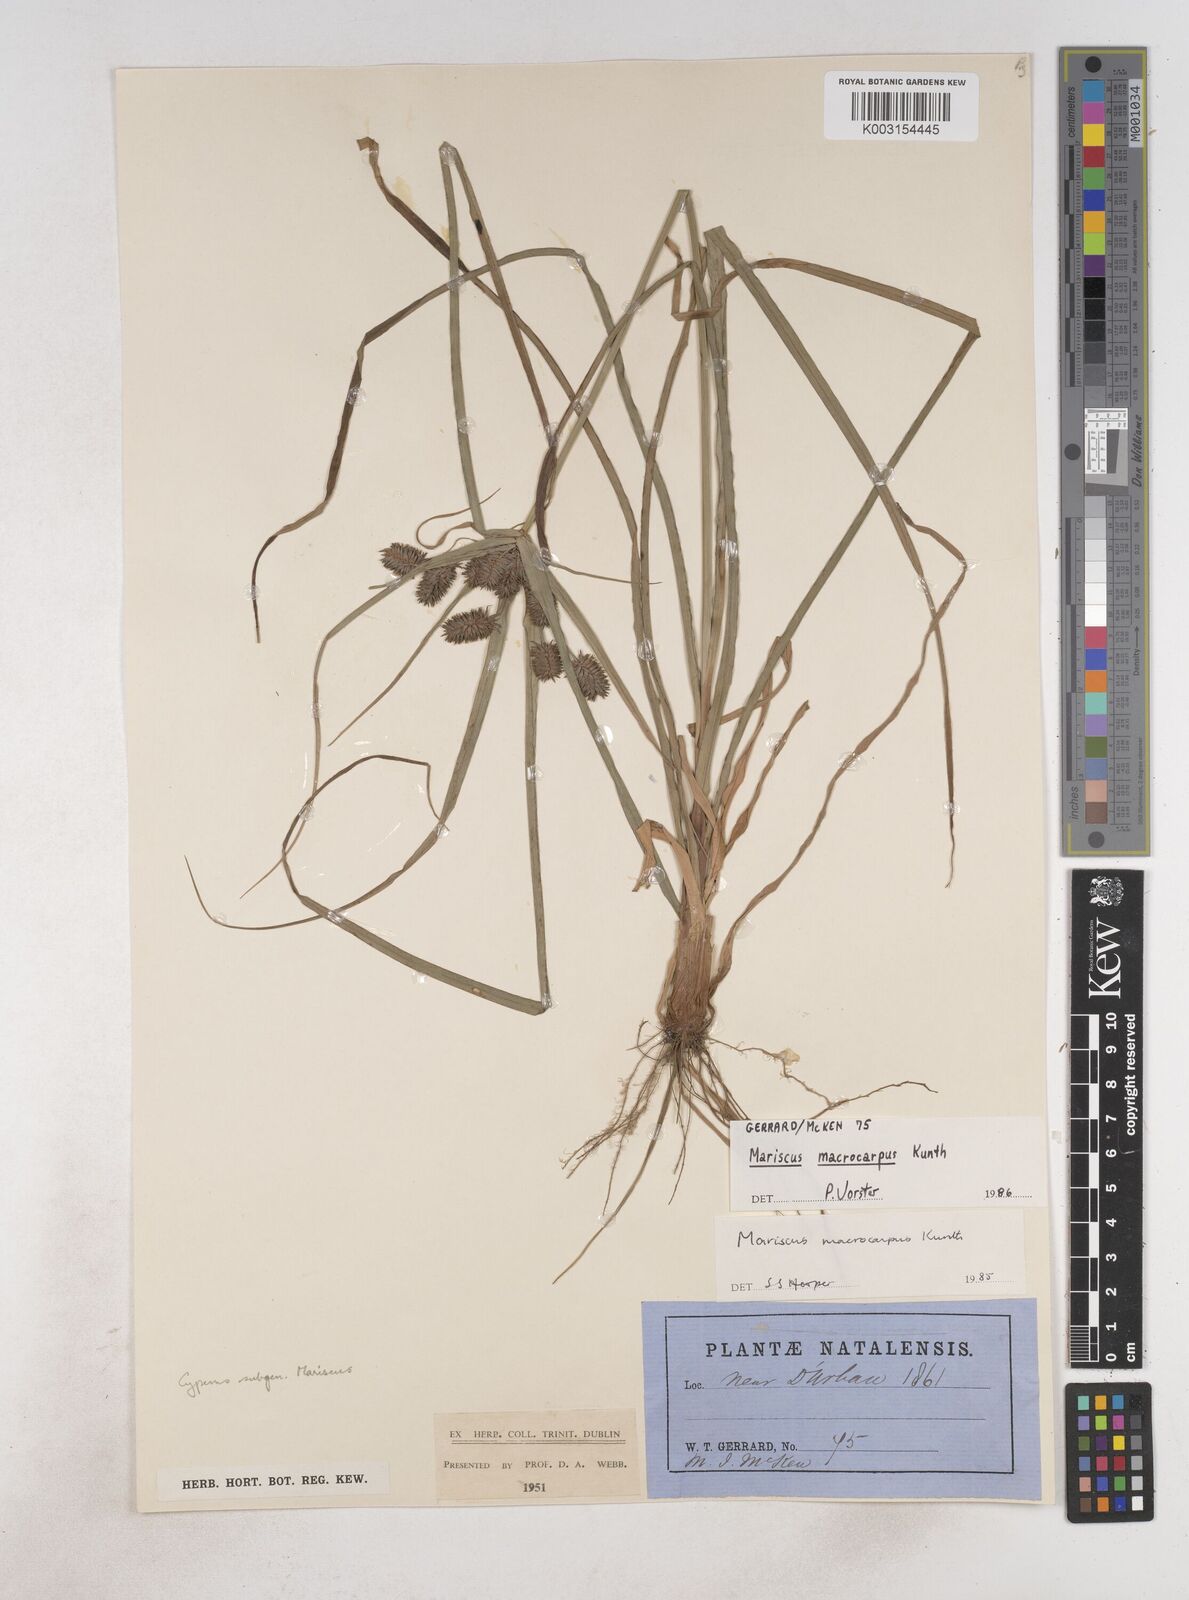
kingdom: Plantae
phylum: Tracheophyta
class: Liliopsida
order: Poales
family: Cyperaceae
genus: Cyperus
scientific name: Cyperus macrocarpus
